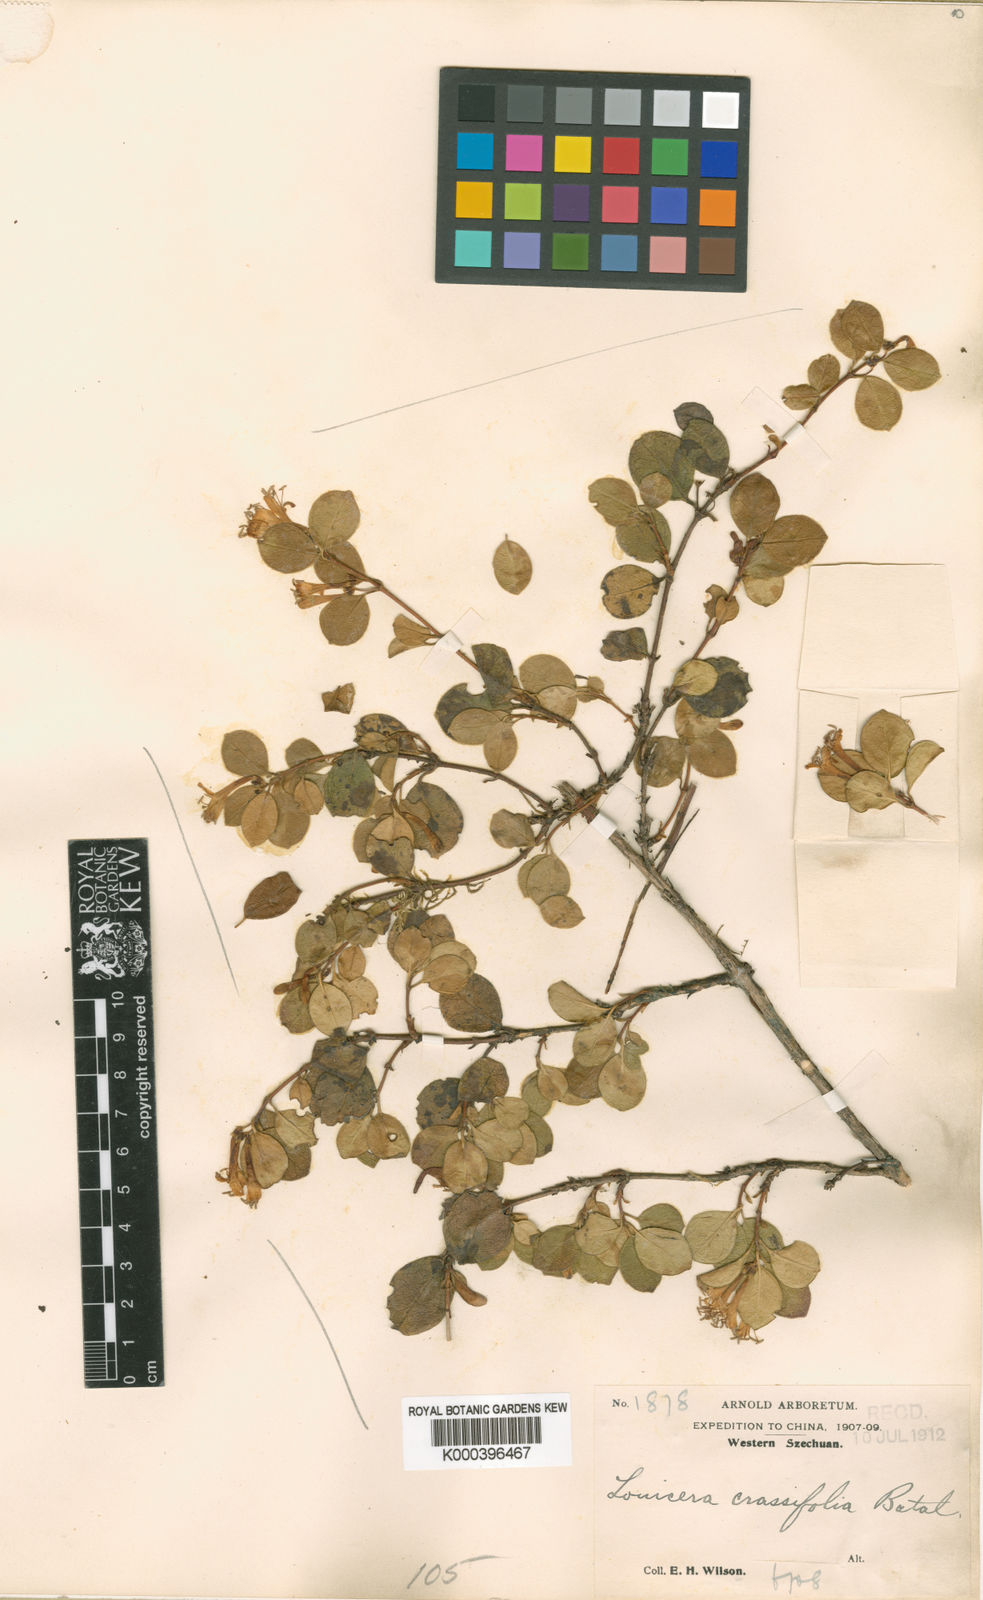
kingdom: Plantae
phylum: Tracheophyta
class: Magnoliopsida
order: Dipsacales
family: Caprifoliaceae
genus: Lonicera
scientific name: Lonicera crassifolia
